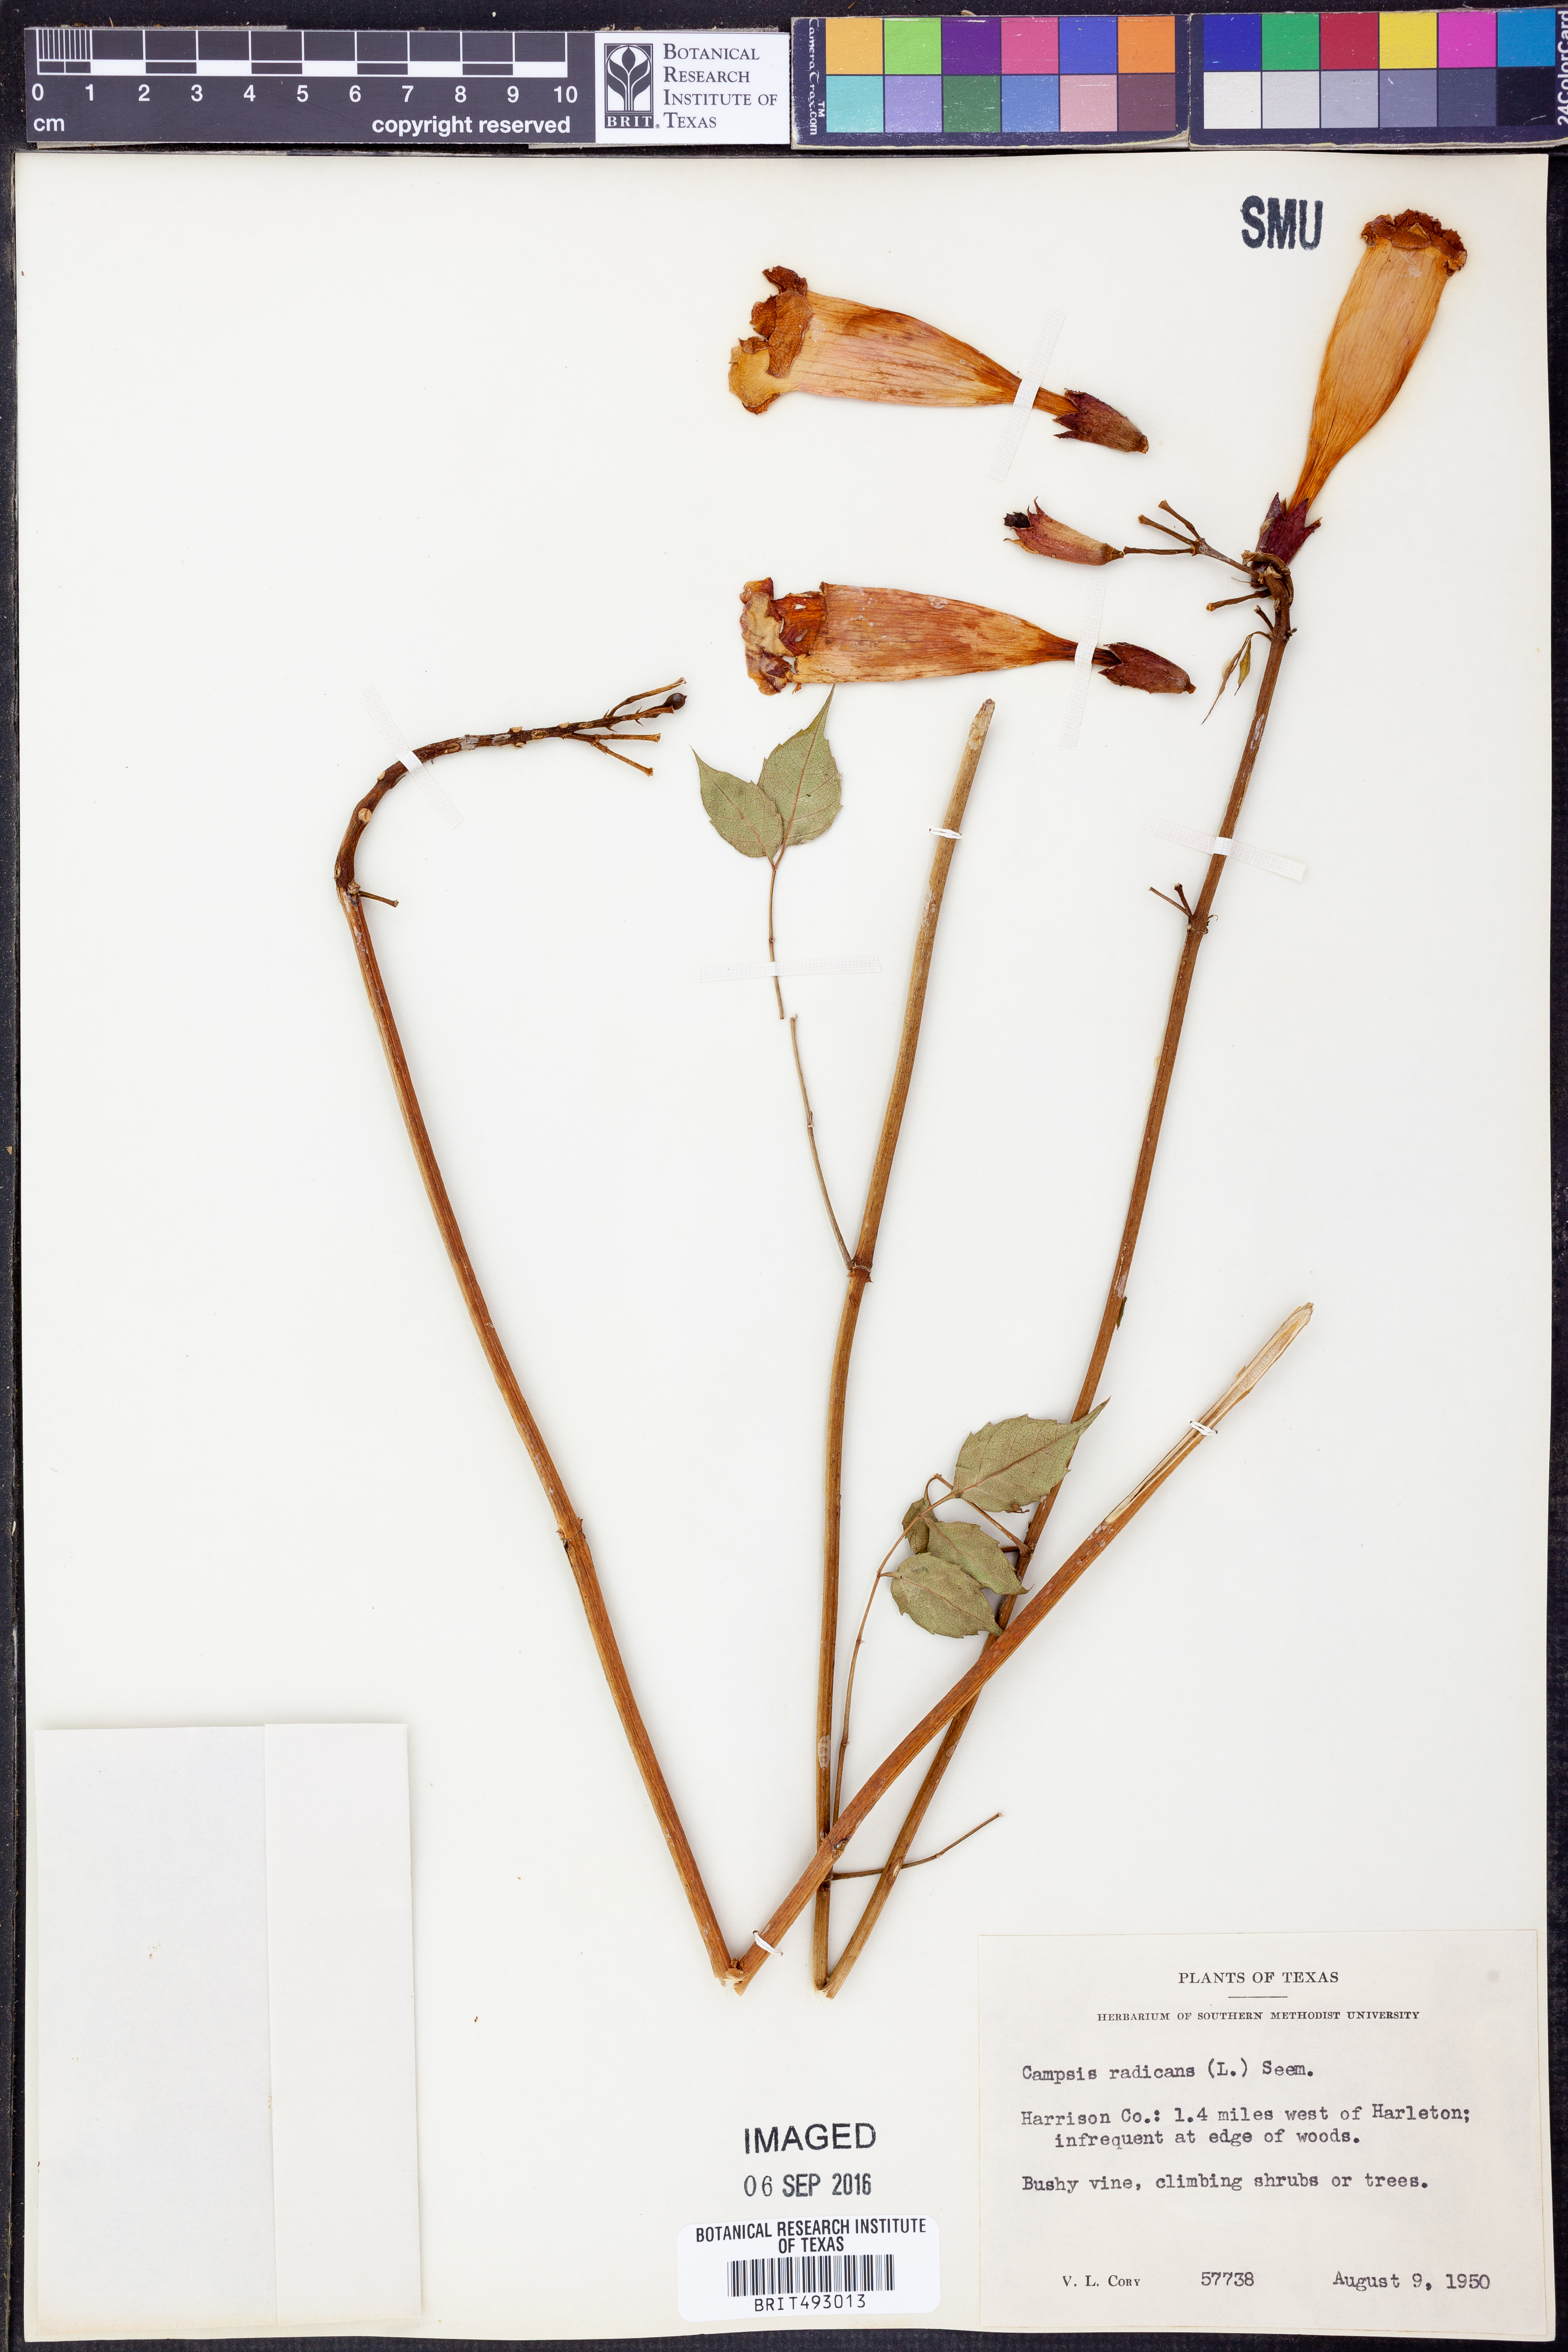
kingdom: Plantae
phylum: Tracheophyta
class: Magnoliopsida
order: Lamiales
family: Bignoniaceae
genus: Campsis
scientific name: Campsis radicans
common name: Trumpet-creeper
